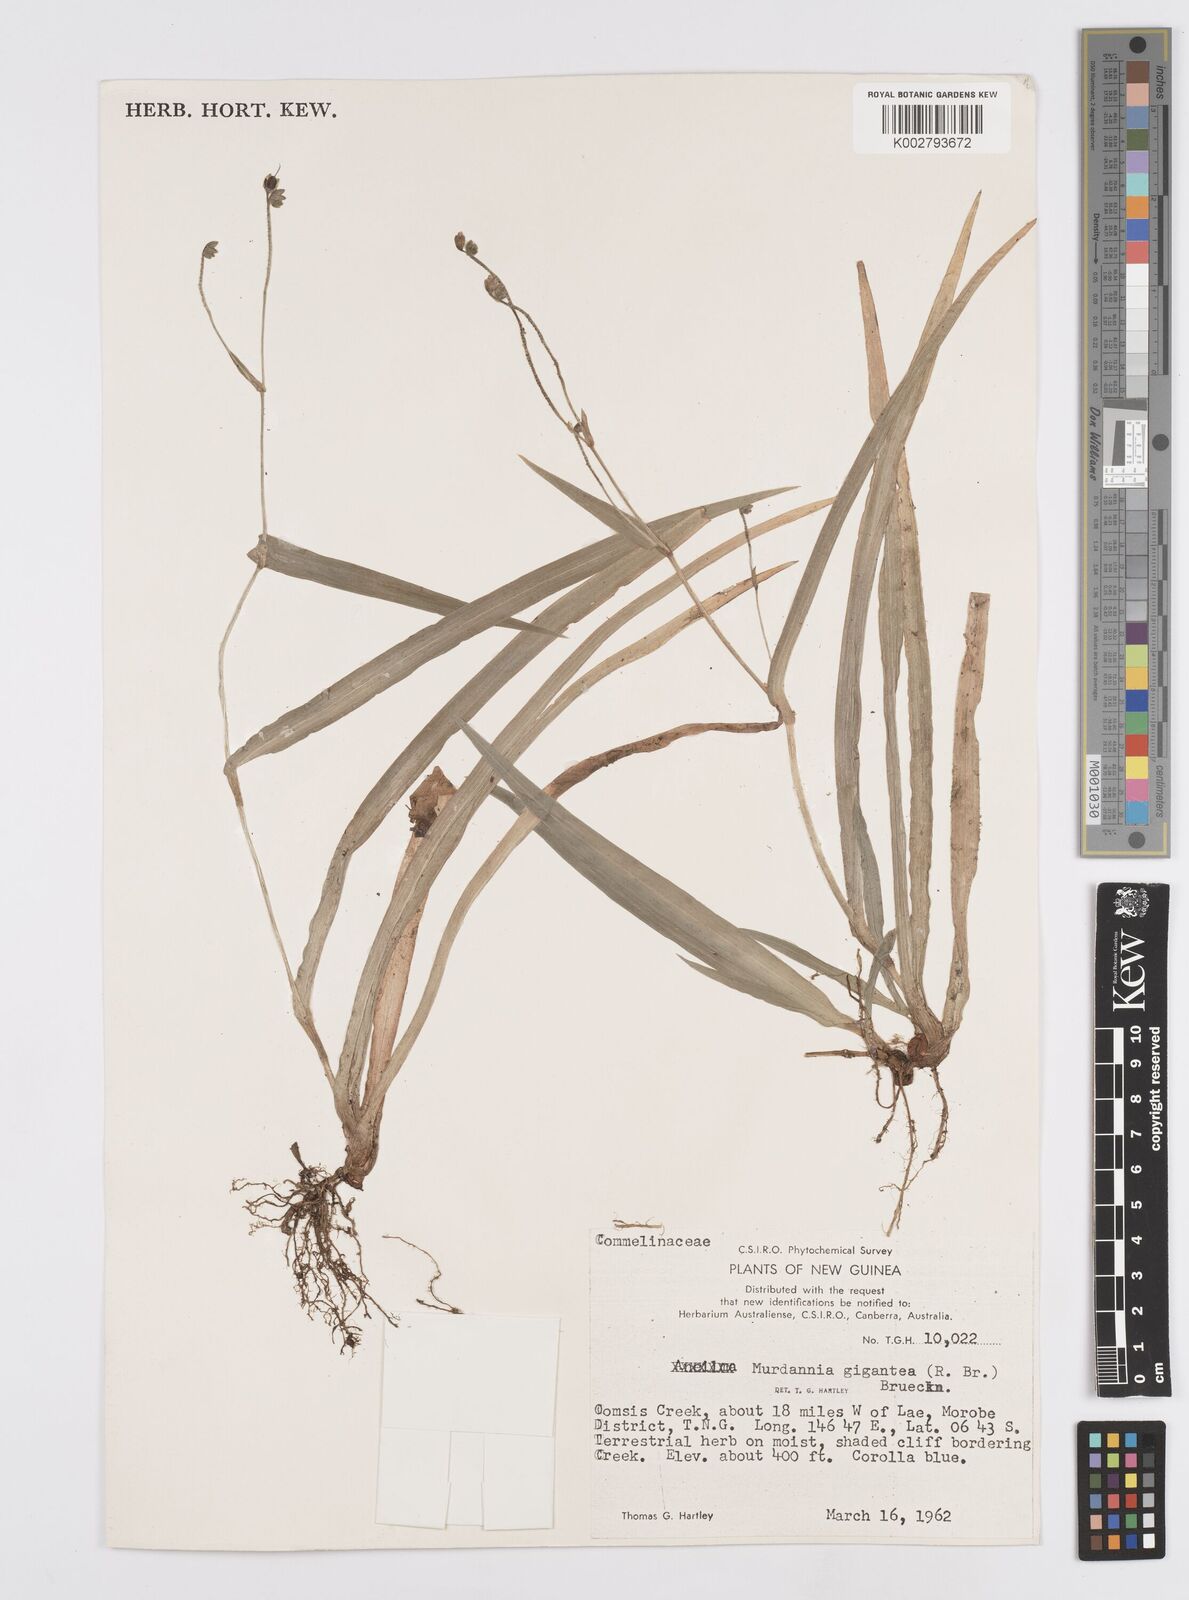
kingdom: Plantae
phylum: Tracheophyta
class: Liliopsida
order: Commelinales
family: Commelinaceae
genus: Murdannia
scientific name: Murdannia gigantea
